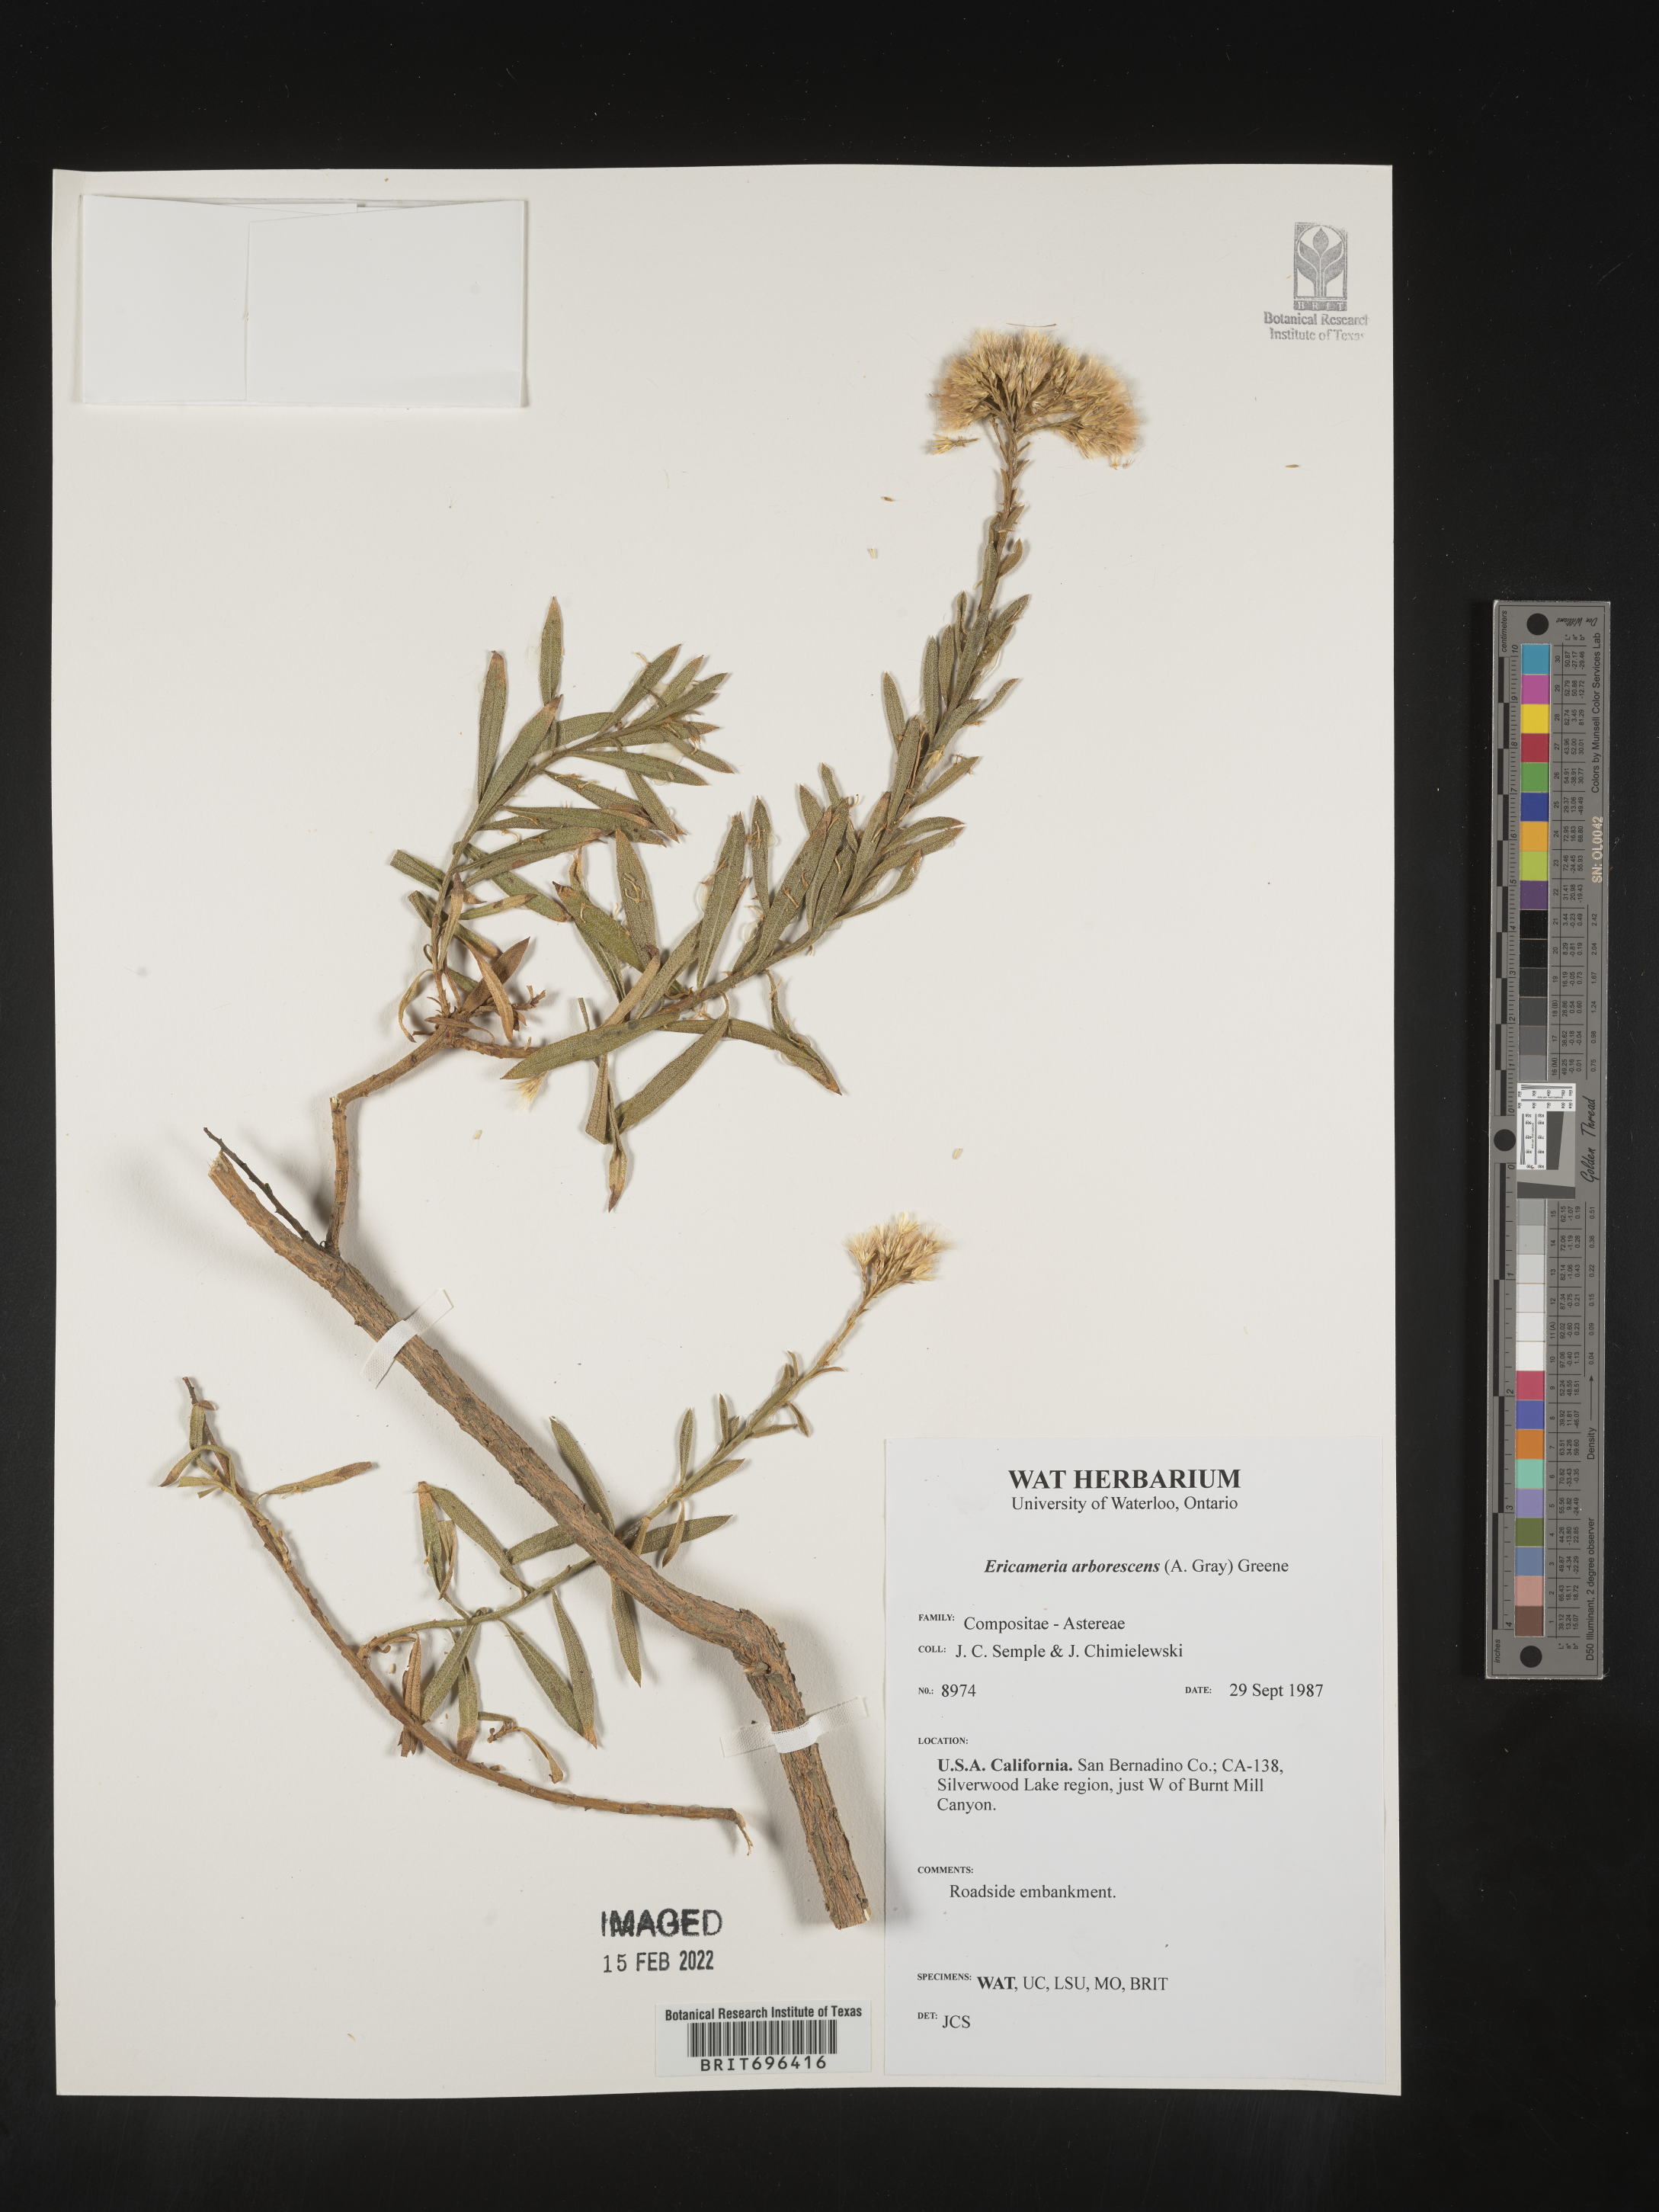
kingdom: Plantae
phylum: Tracheophyta
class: Magnoliopsida
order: Asterales
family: Asteraceae
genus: Ericameria
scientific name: Ericameria arborescens
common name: Goldenfleece
